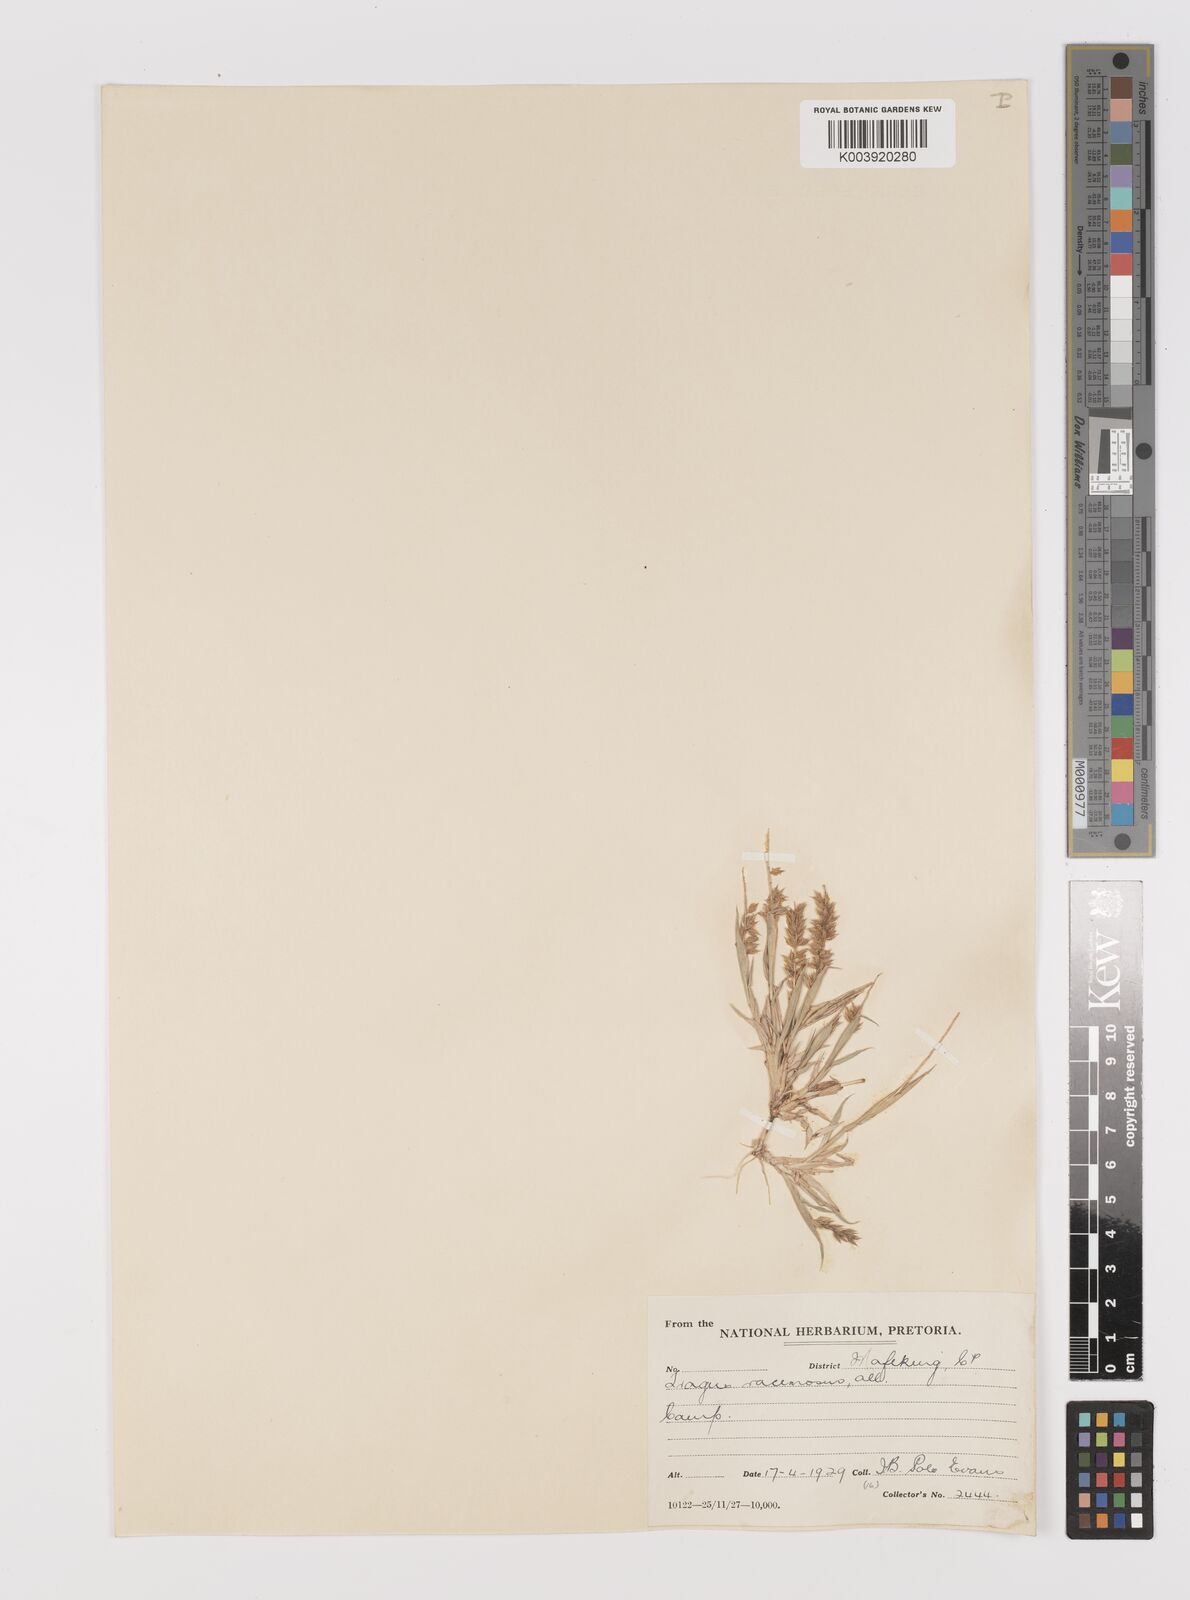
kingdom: Plantae
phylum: Tracheophyta
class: Liliopsida
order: Poales
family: Poaceae
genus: Tragus
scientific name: Tragus racemosus
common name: European bur-grass
